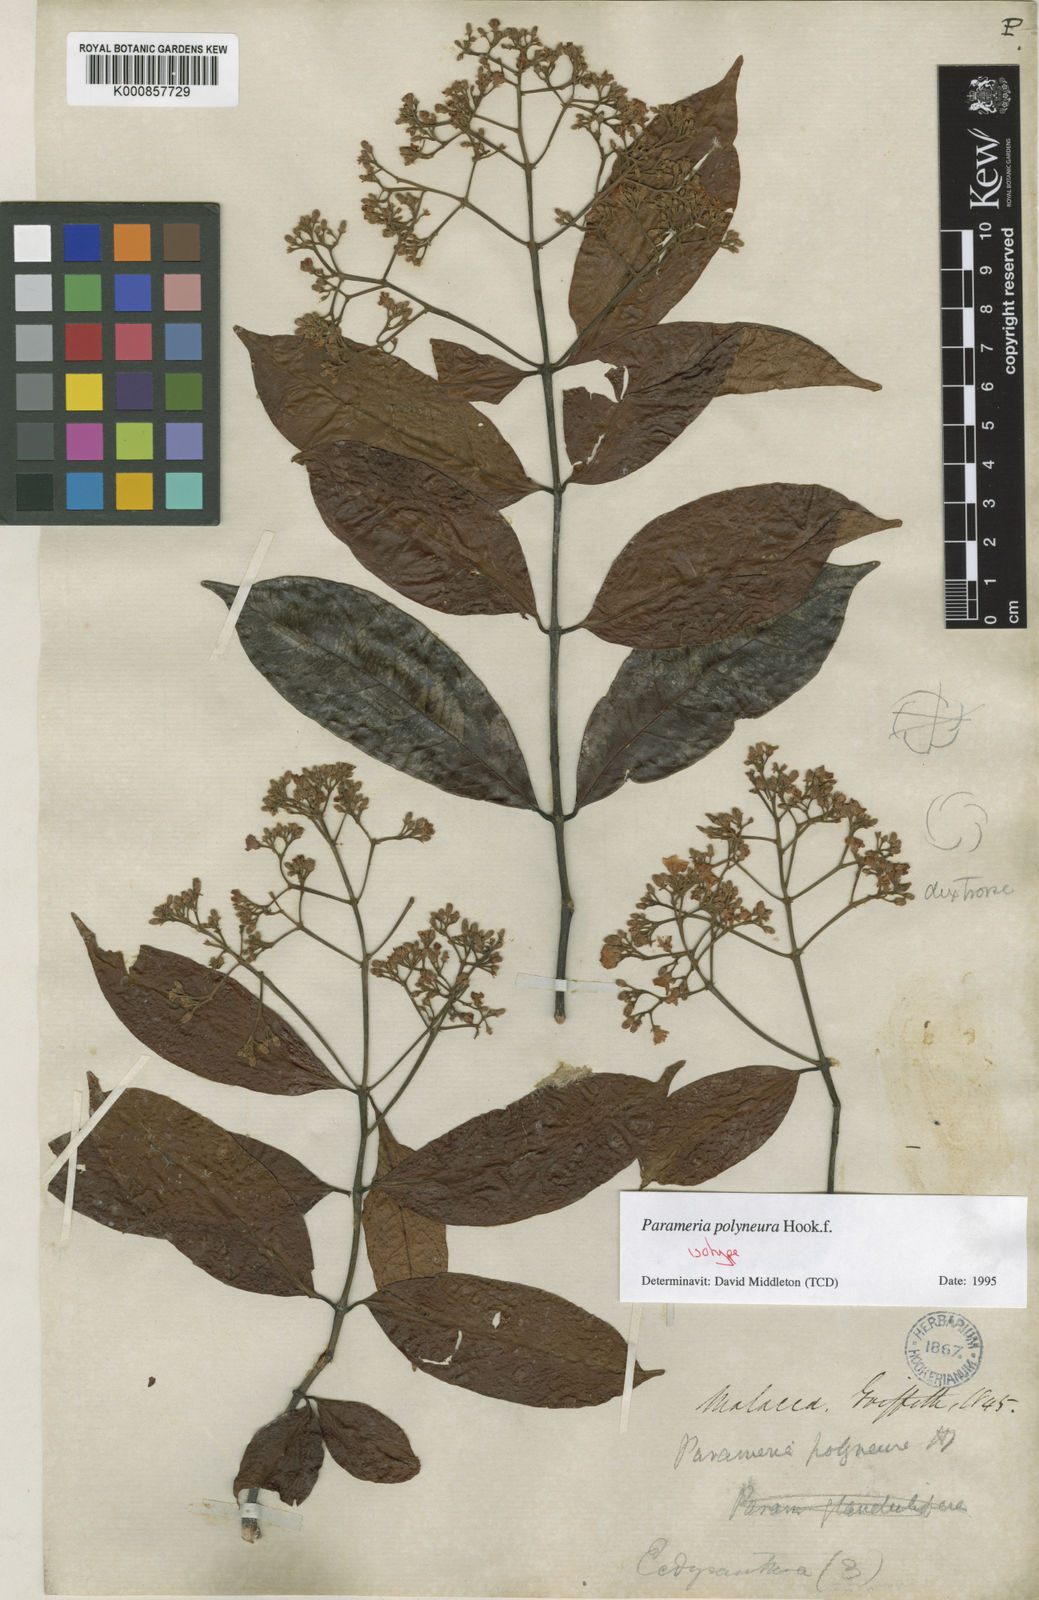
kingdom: Plantae
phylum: Tracheophyta
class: Magnoliopsida
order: Gentianales
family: Apocynaceae
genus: Urceola
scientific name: Urceola polyneura
